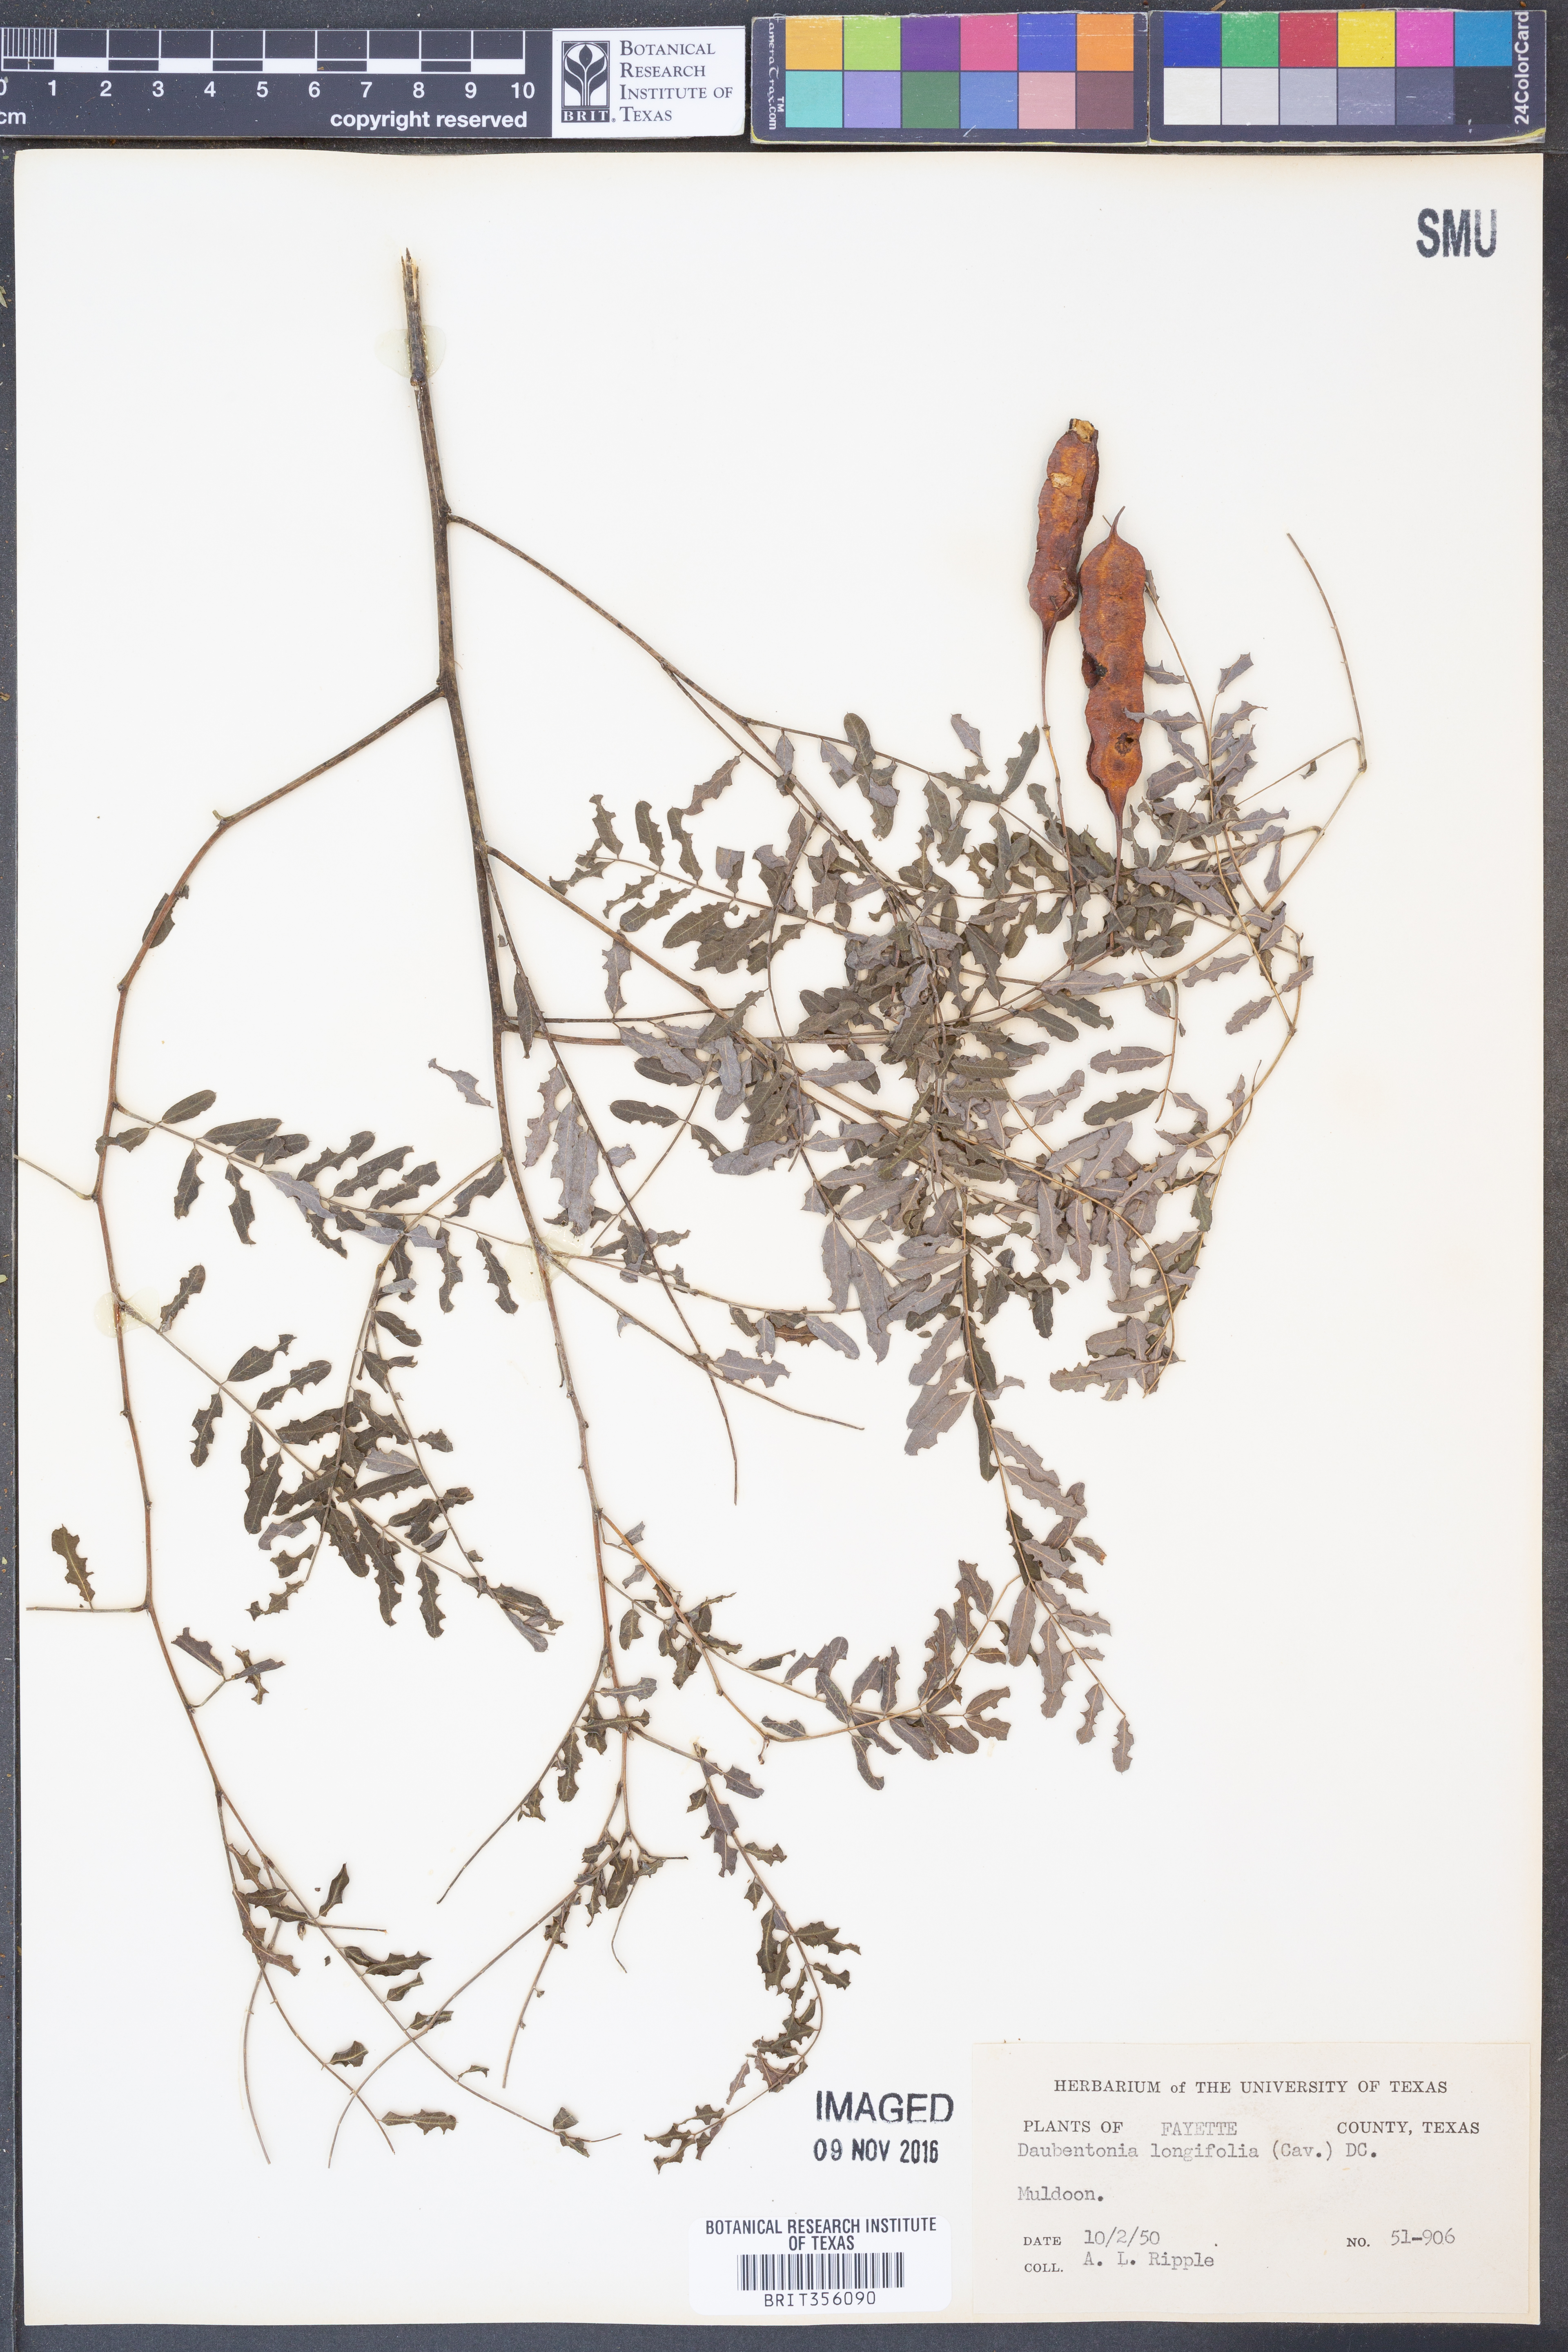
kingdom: Animalia
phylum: Chordata
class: Mammalia
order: Primates
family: Daubentoniidae
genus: Daubentonia
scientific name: Daubentonia
